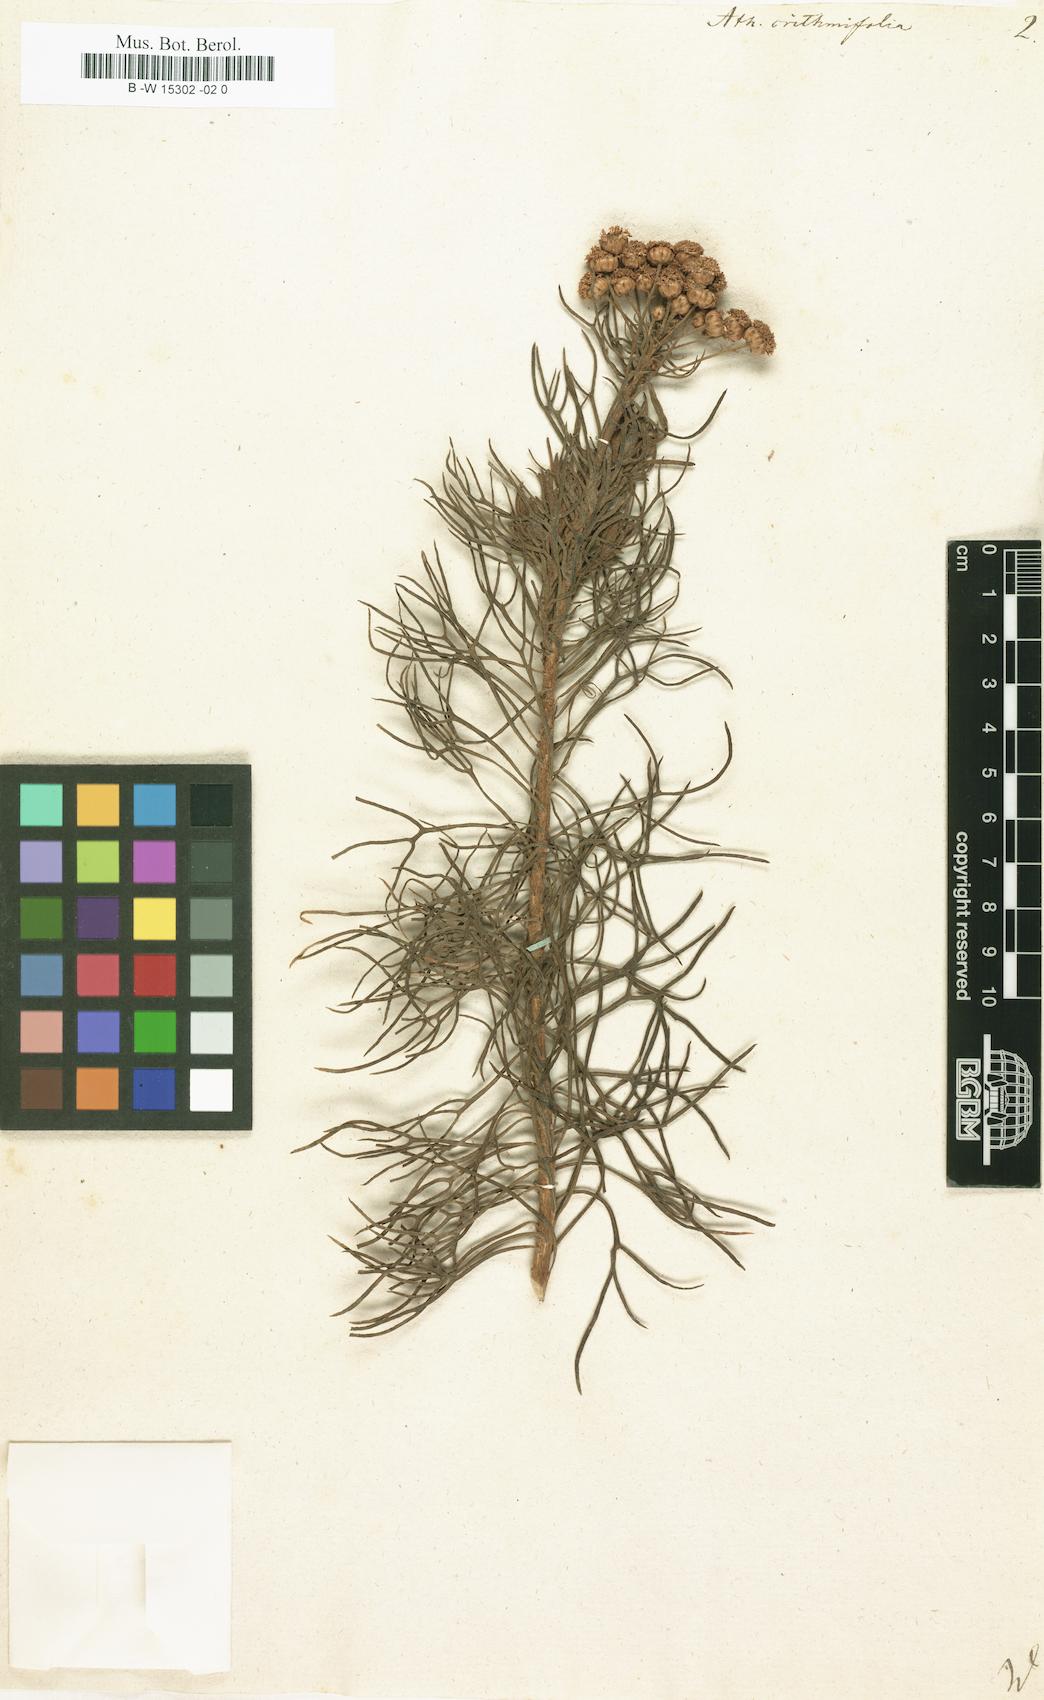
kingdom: Plantae
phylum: Tracheophyta
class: Magnoliopsida
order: Asterales
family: Asteraceae
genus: Athanasia
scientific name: Athanasia crithmifolia
